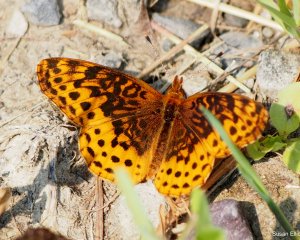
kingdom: Animalia
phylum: Arthropoda
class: Insecta
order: Lepidoptera
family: Nymphalidae
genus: Clossiana
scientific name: Clossiana toddi
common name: Meadow Fritillary
